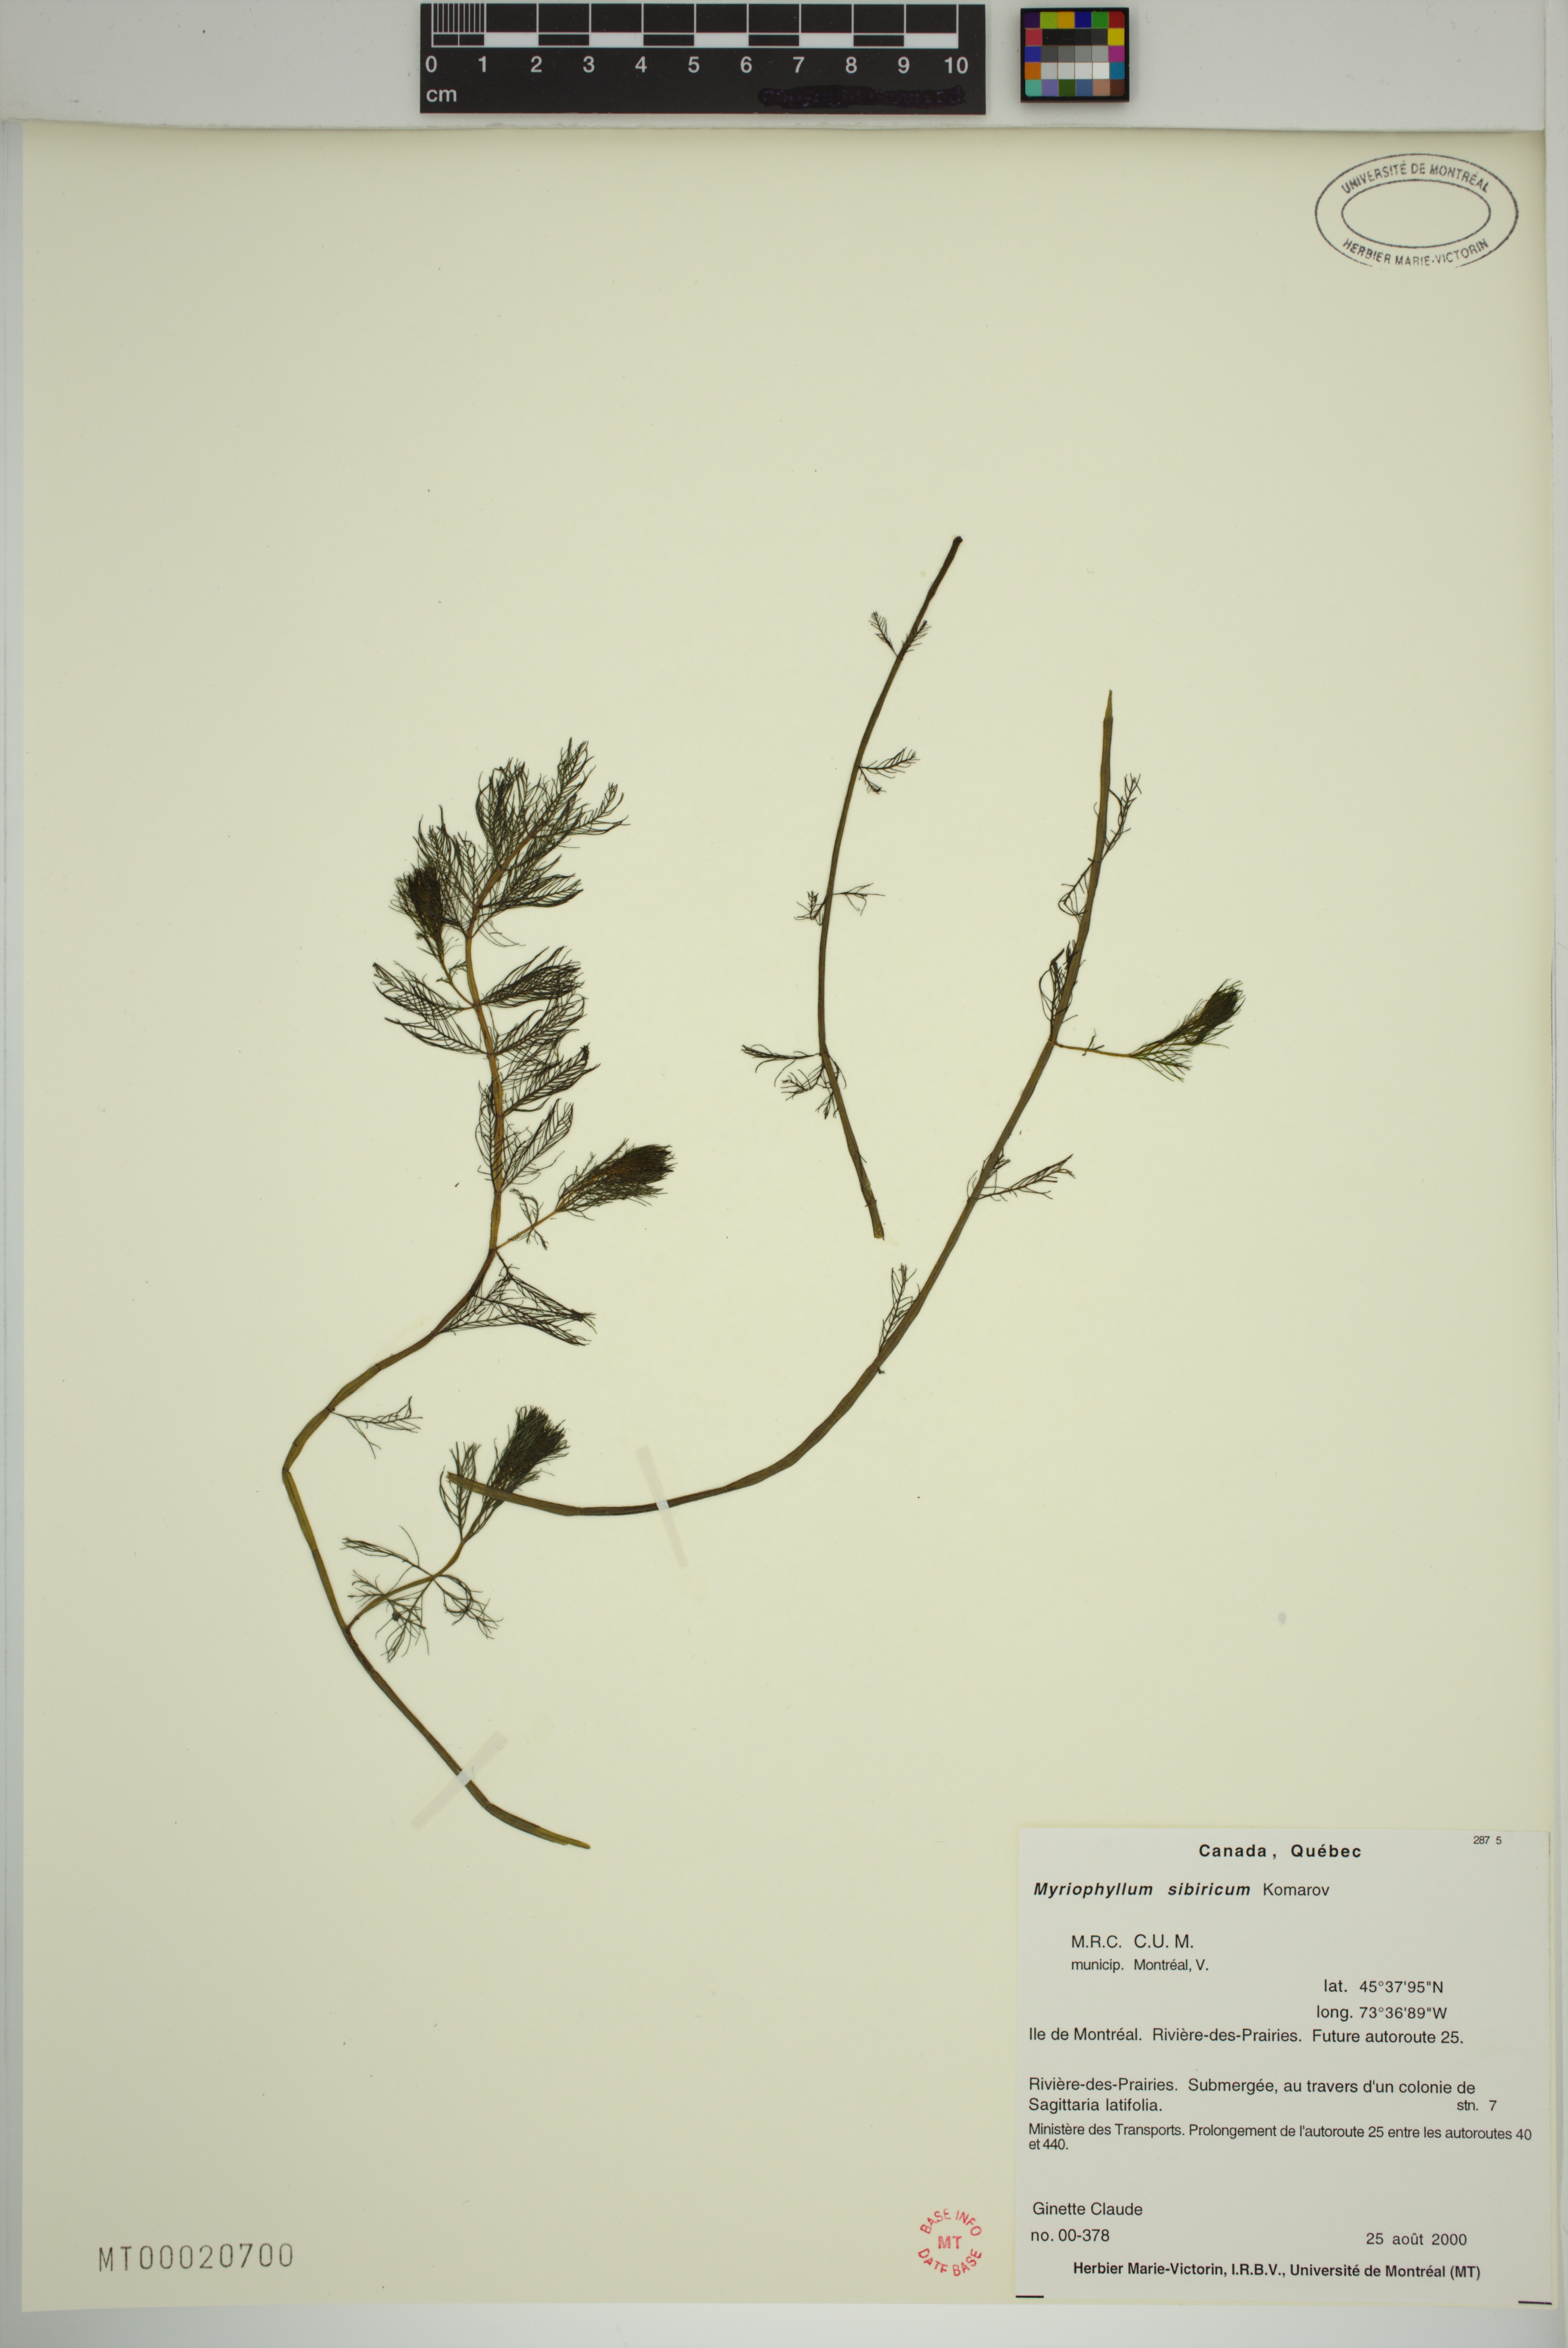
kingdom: Plantae
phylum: Tracheophyta
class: Magnoliopsida
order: Saxifragales
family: Haloragaceae
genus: Myriophyllum
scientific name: Myriophyllum sibiricum
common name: Siberian water-milfoil
